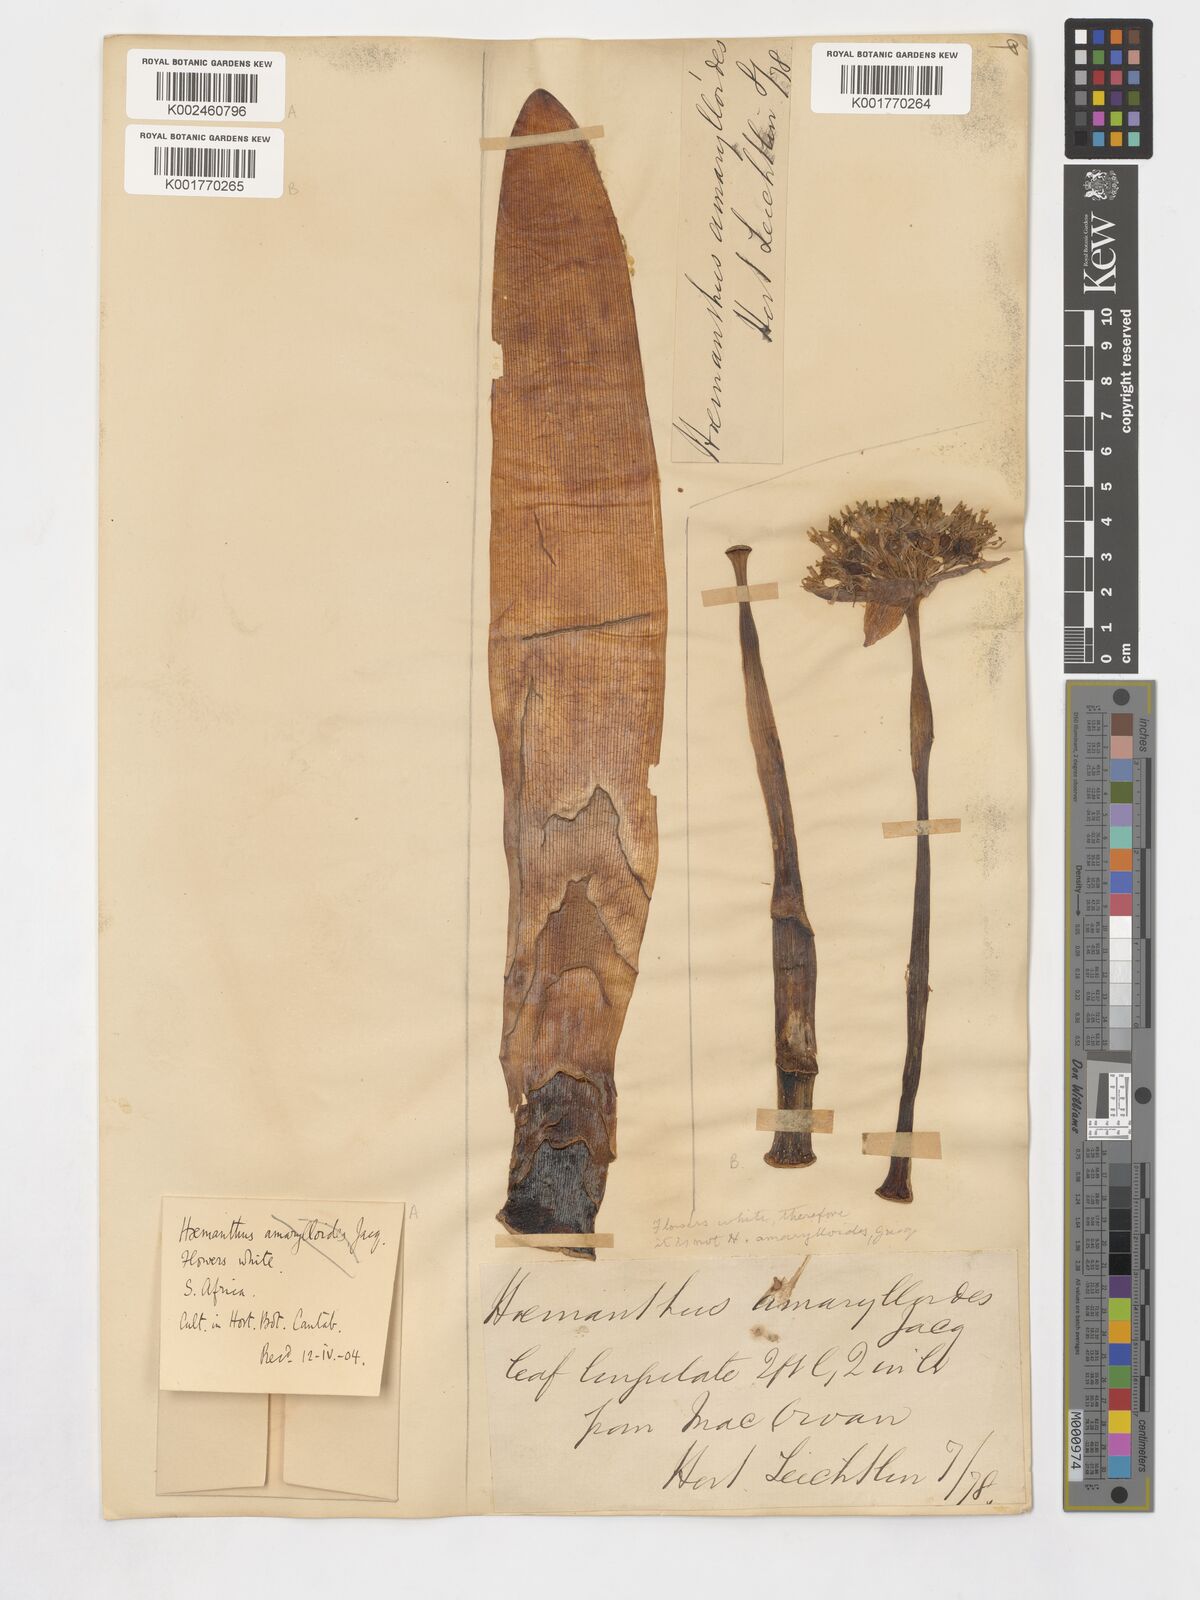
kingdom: Plantae
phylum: Tracheophyta
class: Liliopsida
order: Asparagales
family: Amaryllidaceae
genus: Haemanthus
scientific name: Haemanthus amarylloides
